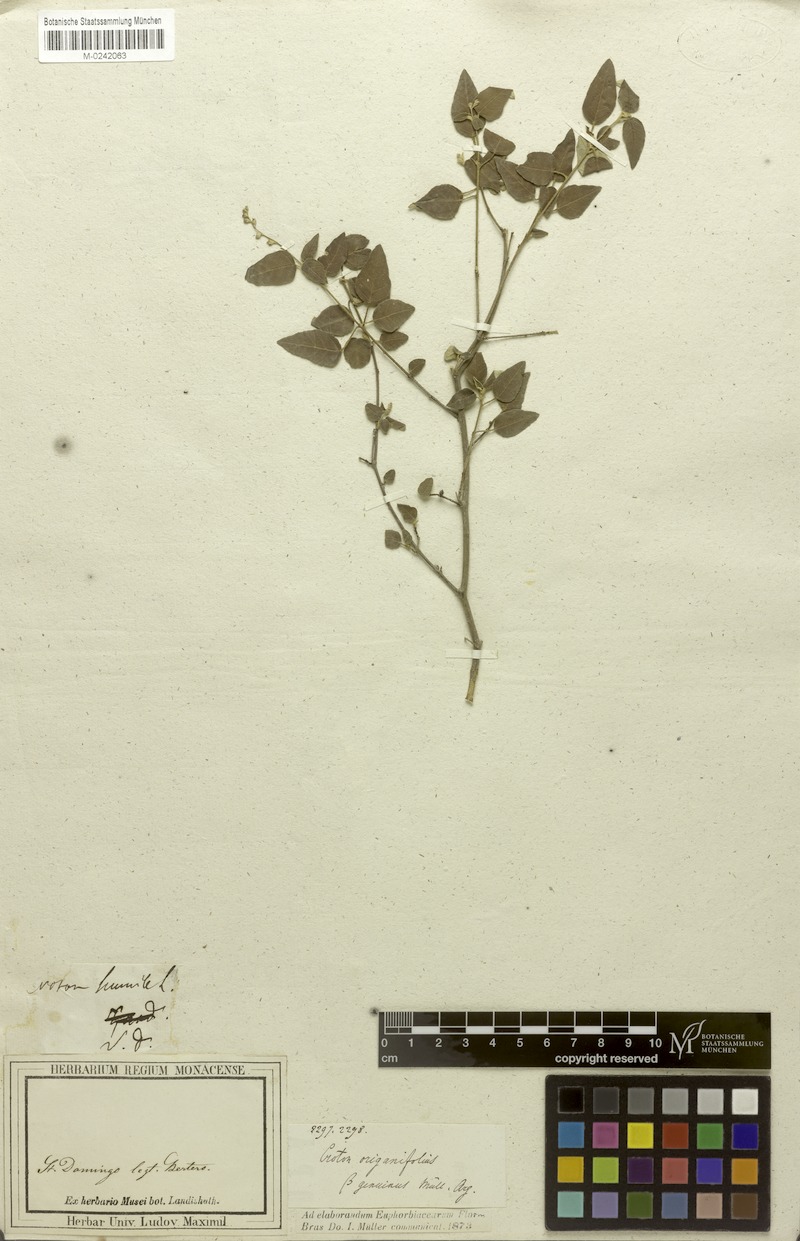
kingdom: Plantae
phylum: Tracheophyta
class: Magnoliopsida
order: Malpighiales
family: Euphorbiaceae
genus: Croton
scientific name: Croton origanifolius
